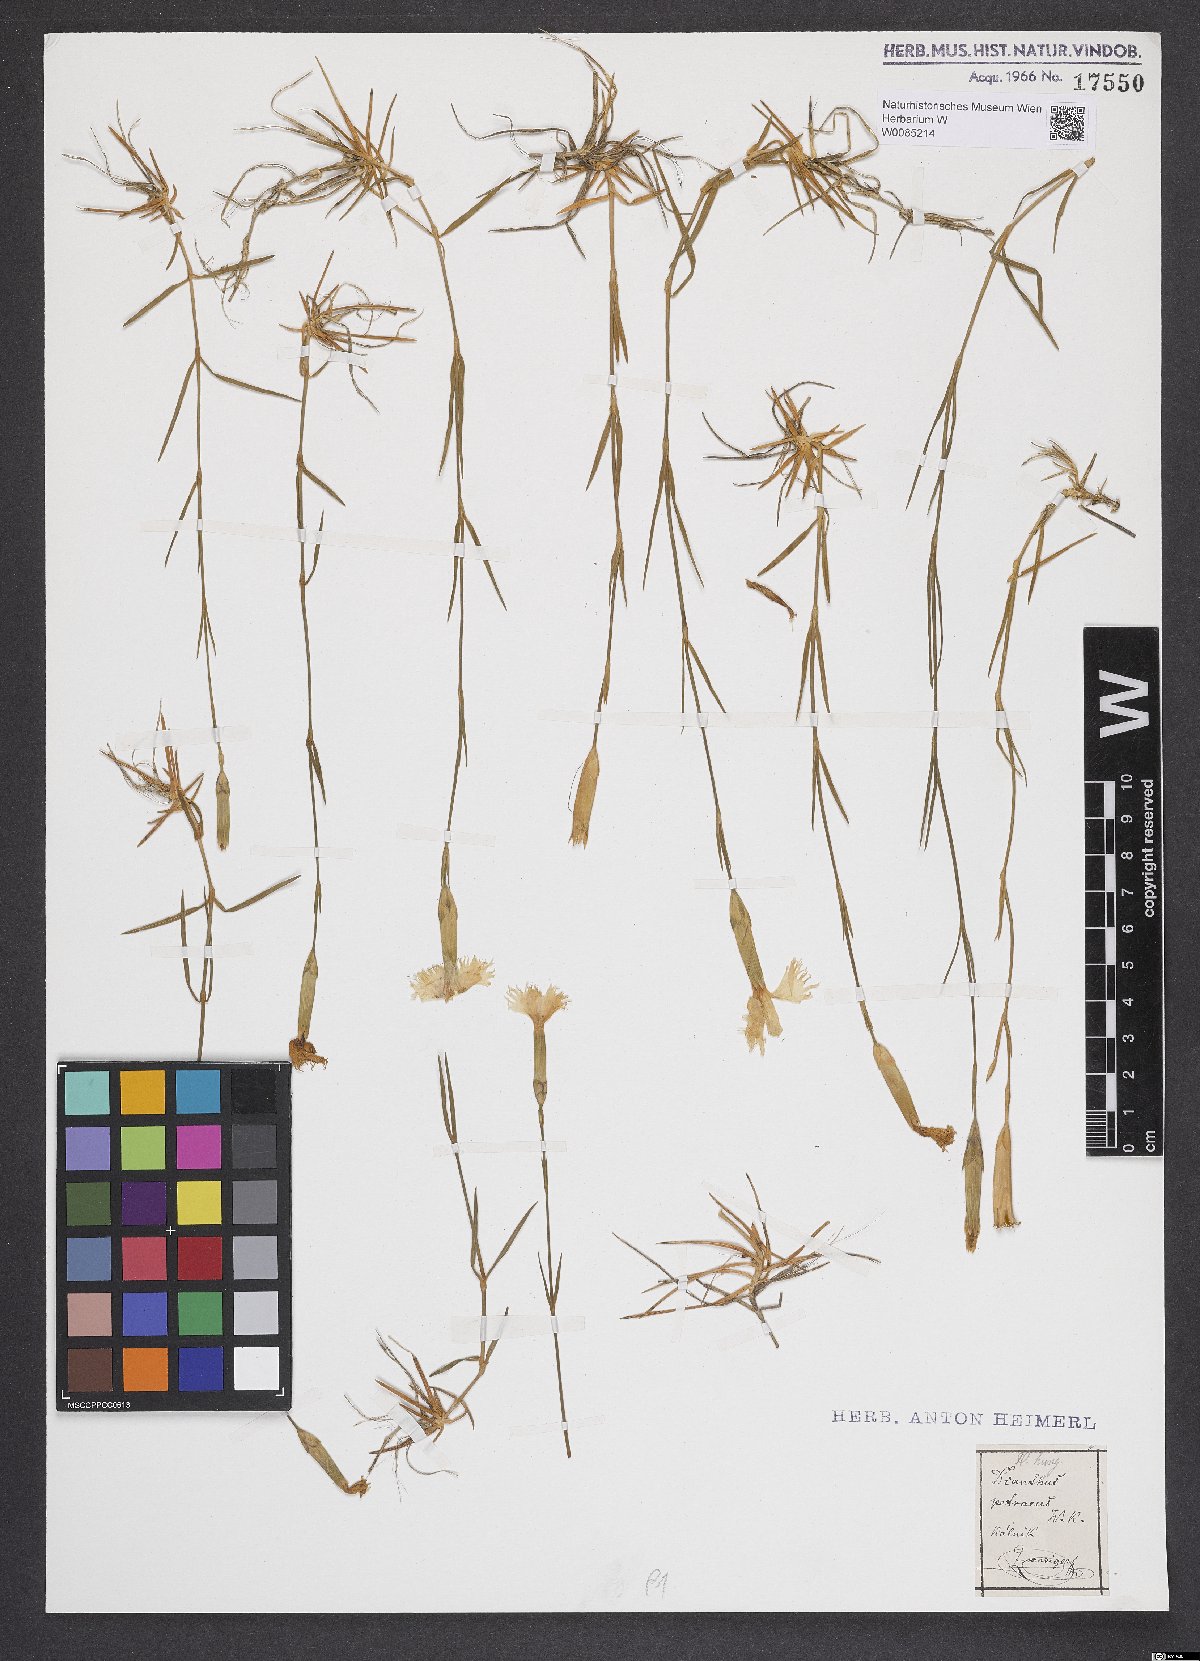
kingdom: Plantae
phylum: Tracheophyta
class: Magnoliopsida
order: Caryophyllales
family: Caryophyllaceae
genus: Dianthus
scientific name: Dianthus petraeus
